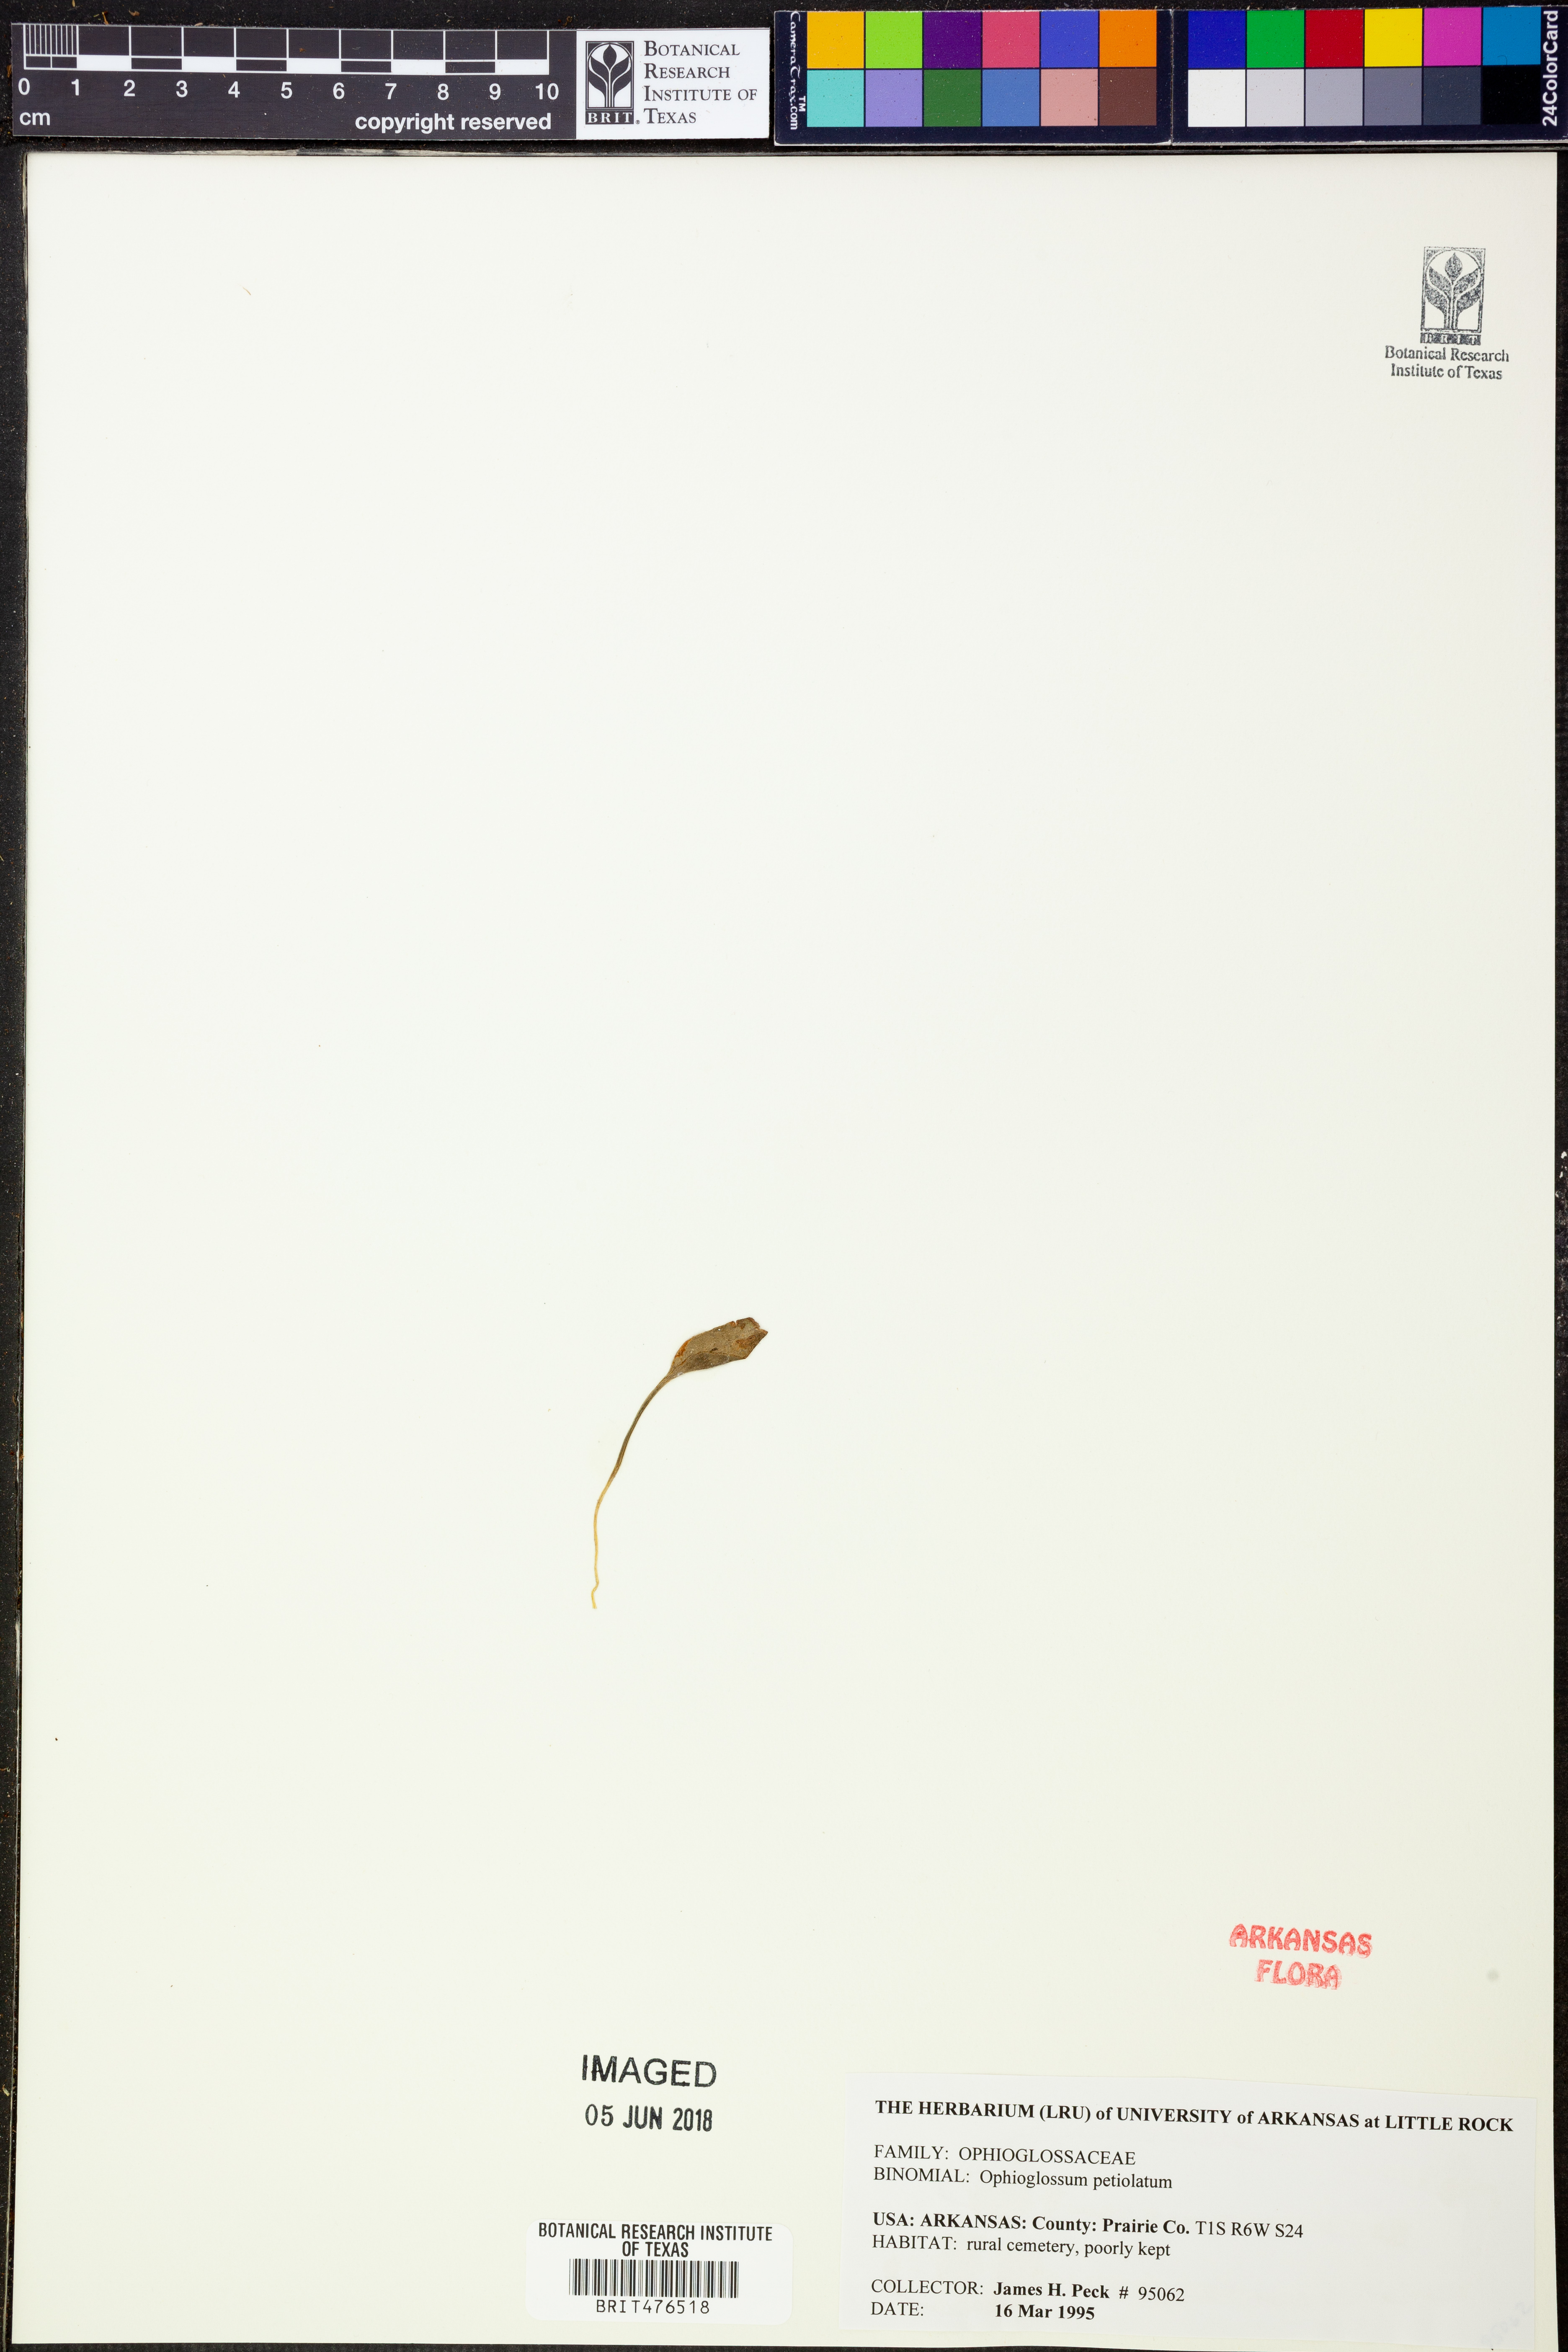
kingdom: Plantae
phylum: Tracheophyta
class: Polypodiopsida
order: Ophioglossales
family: Ophioglossaceae
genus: Ophioglossum
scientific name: Ophioglossum petiolatum
